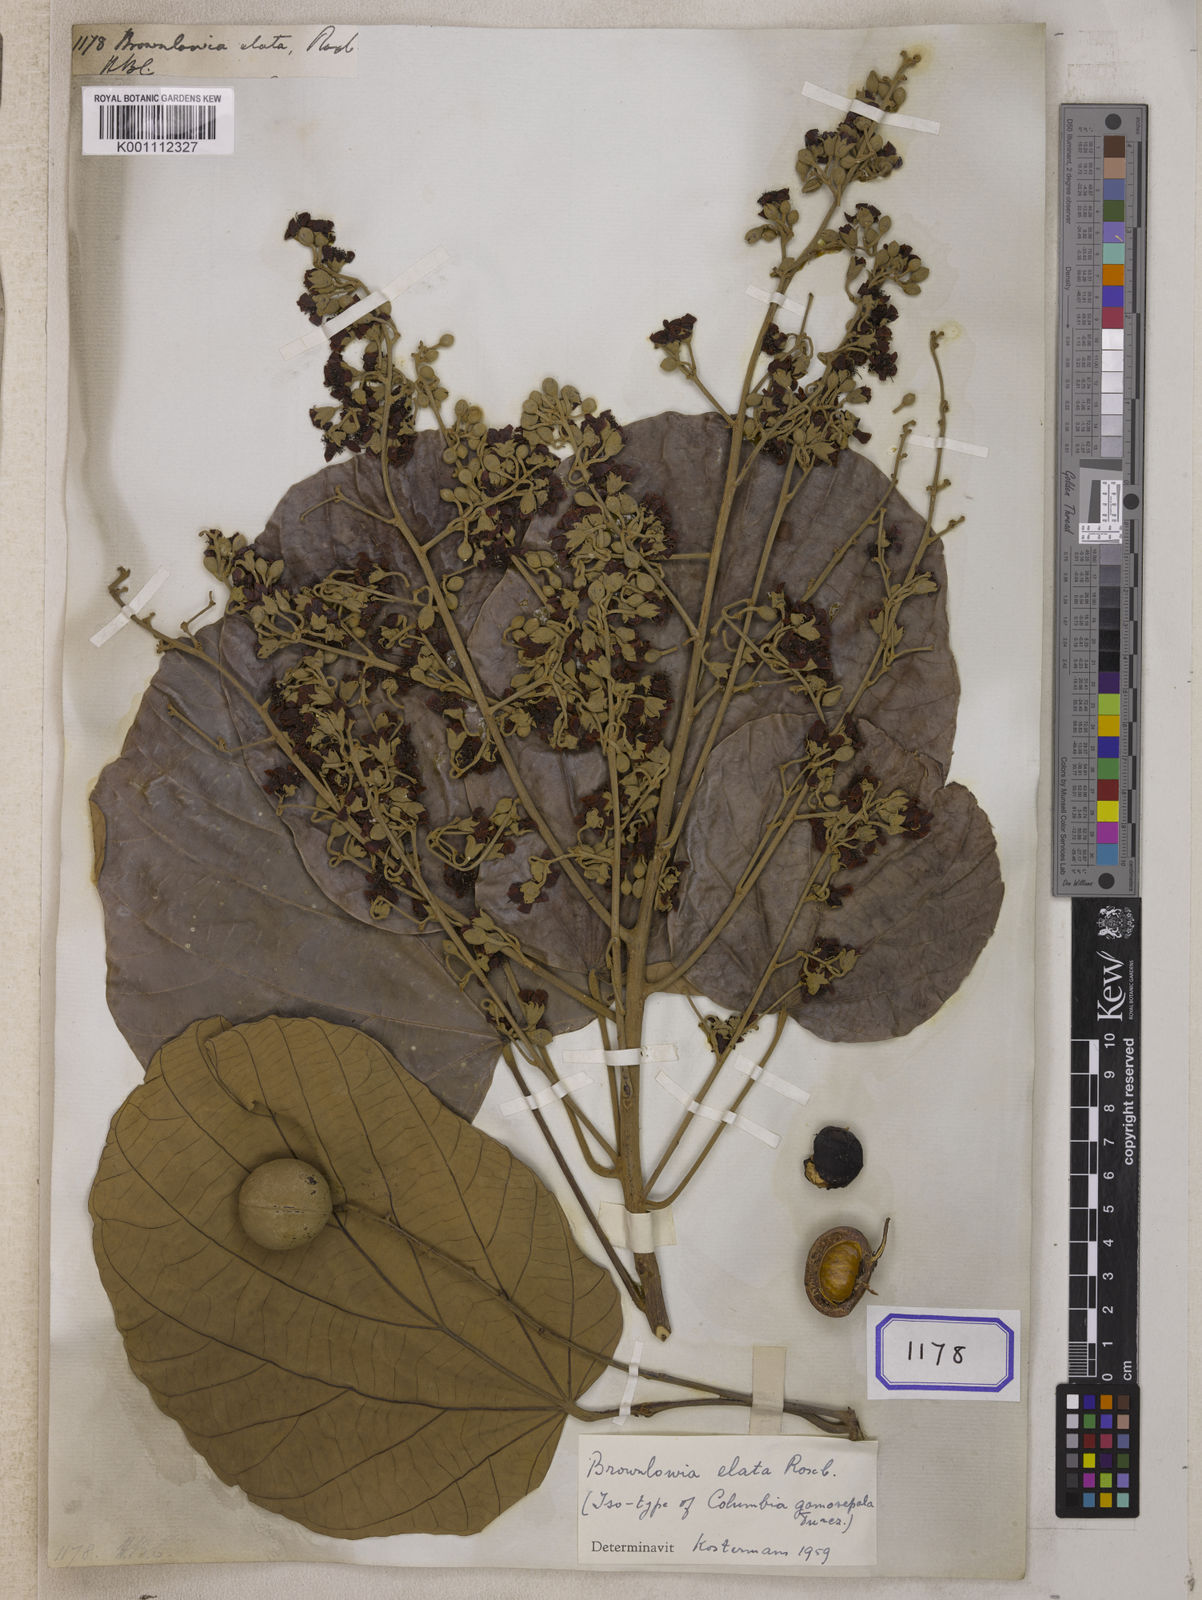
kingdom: Plantae
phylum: Tracheophyta
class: Magnoliopsida
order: Malvales
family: Malvaceae
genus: Brownlowia
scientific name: Brownlowia elata
